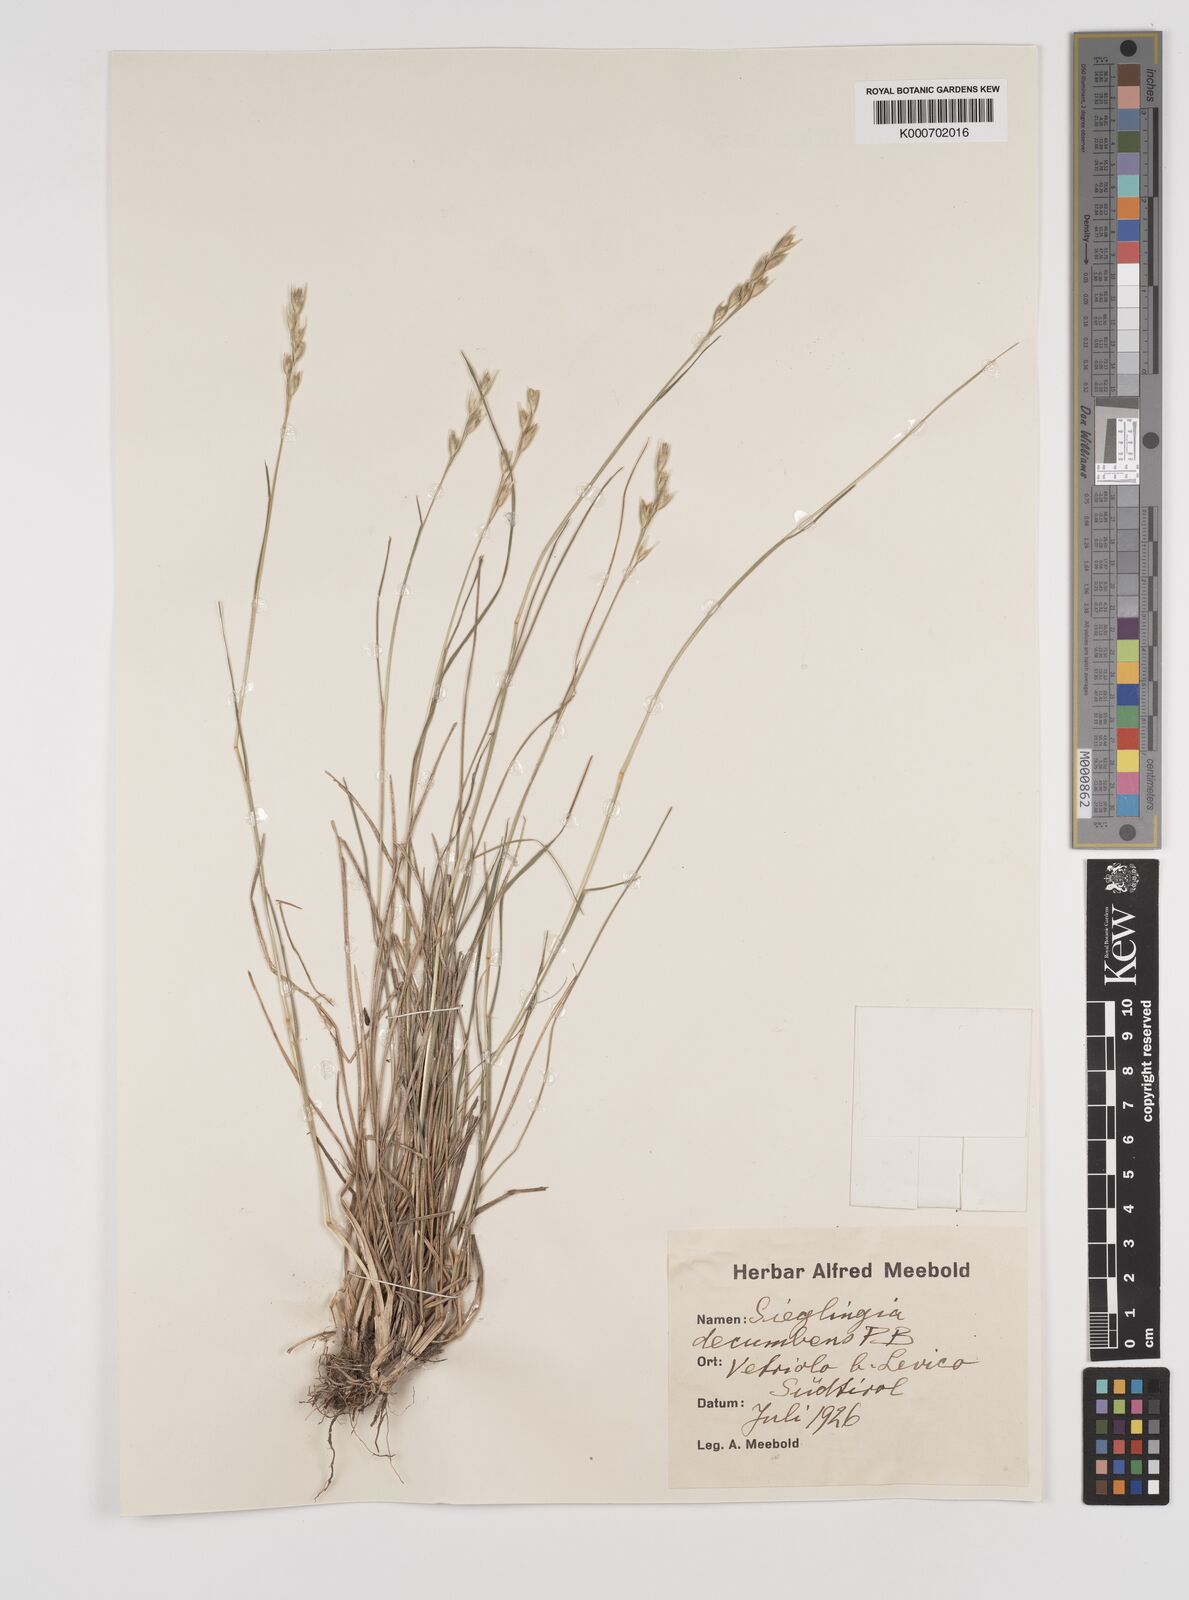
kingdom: Plantae
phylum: Tracheophyta
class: Liliopsida
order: Poales
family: Poaceae
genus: Danthonia
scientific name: Danthonia decumbens
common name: Common heathgrass
